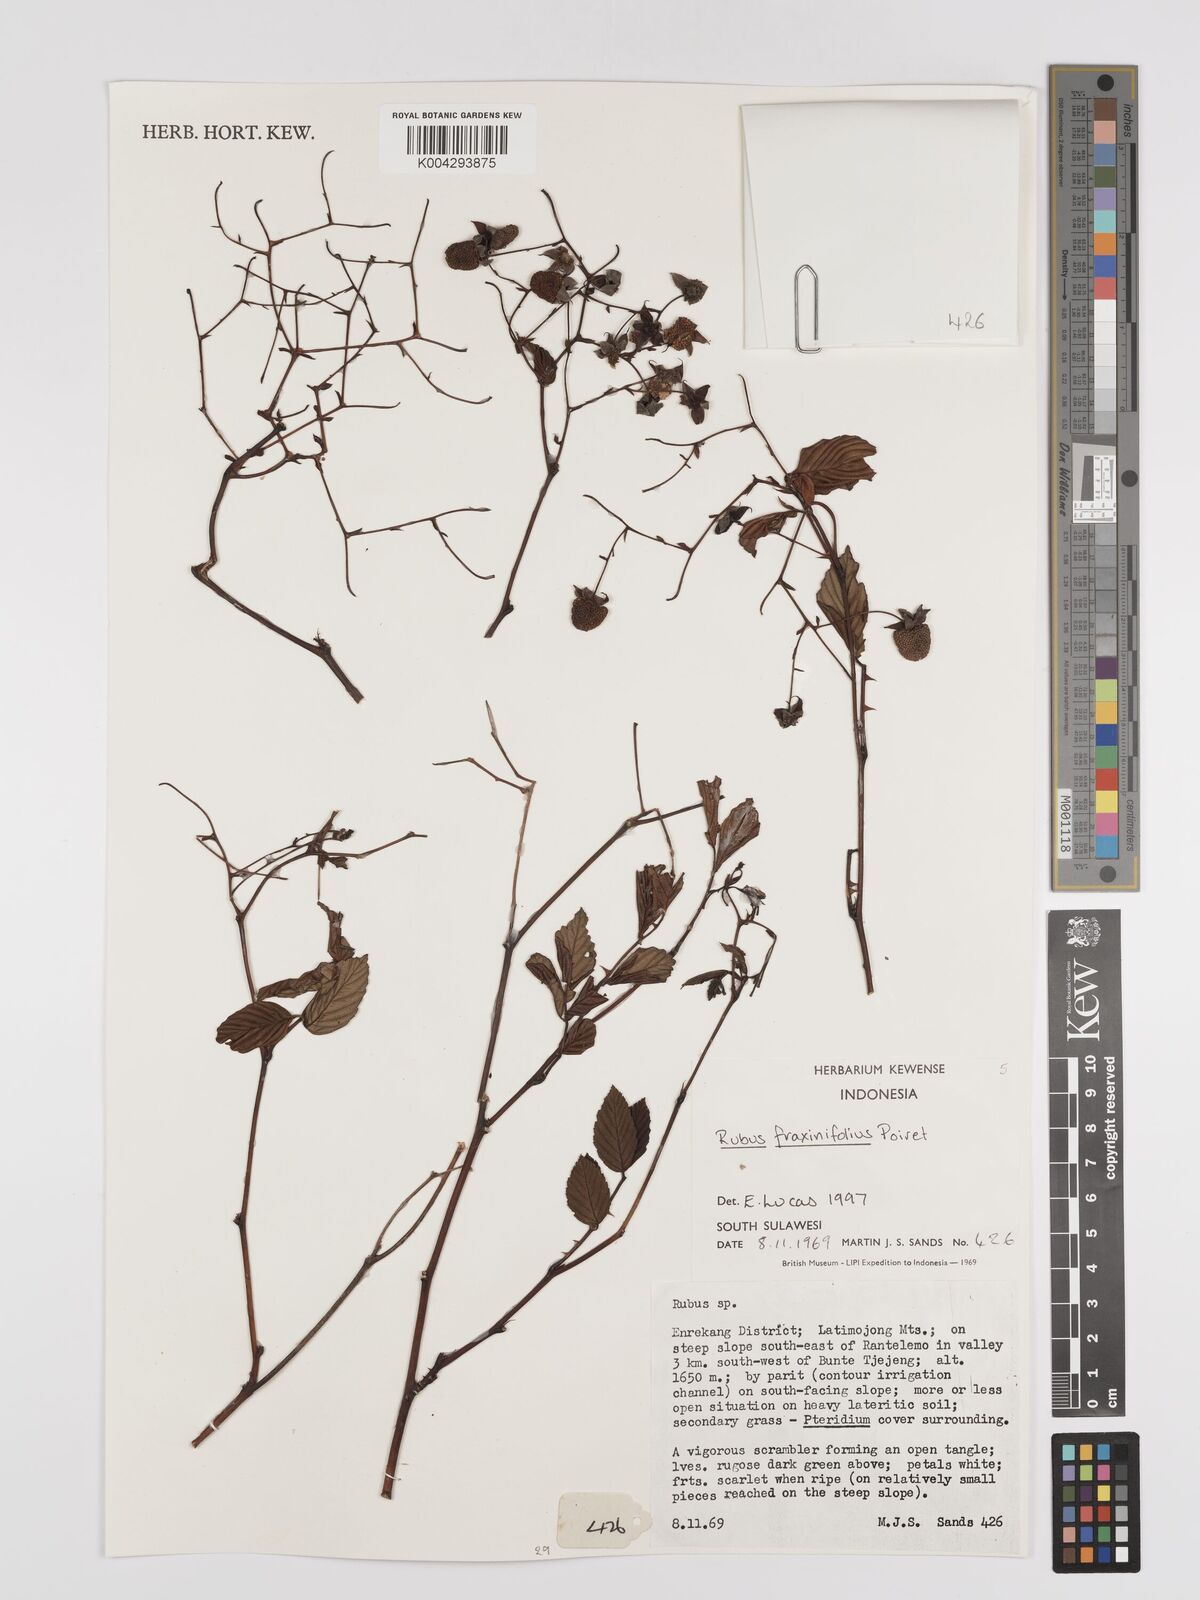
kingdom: Plantae
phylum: Tracheophyta
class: Magnoliopsida
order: Rosales
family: Rosaceae
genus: Rubus
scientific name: Rubus fraxinifolius
